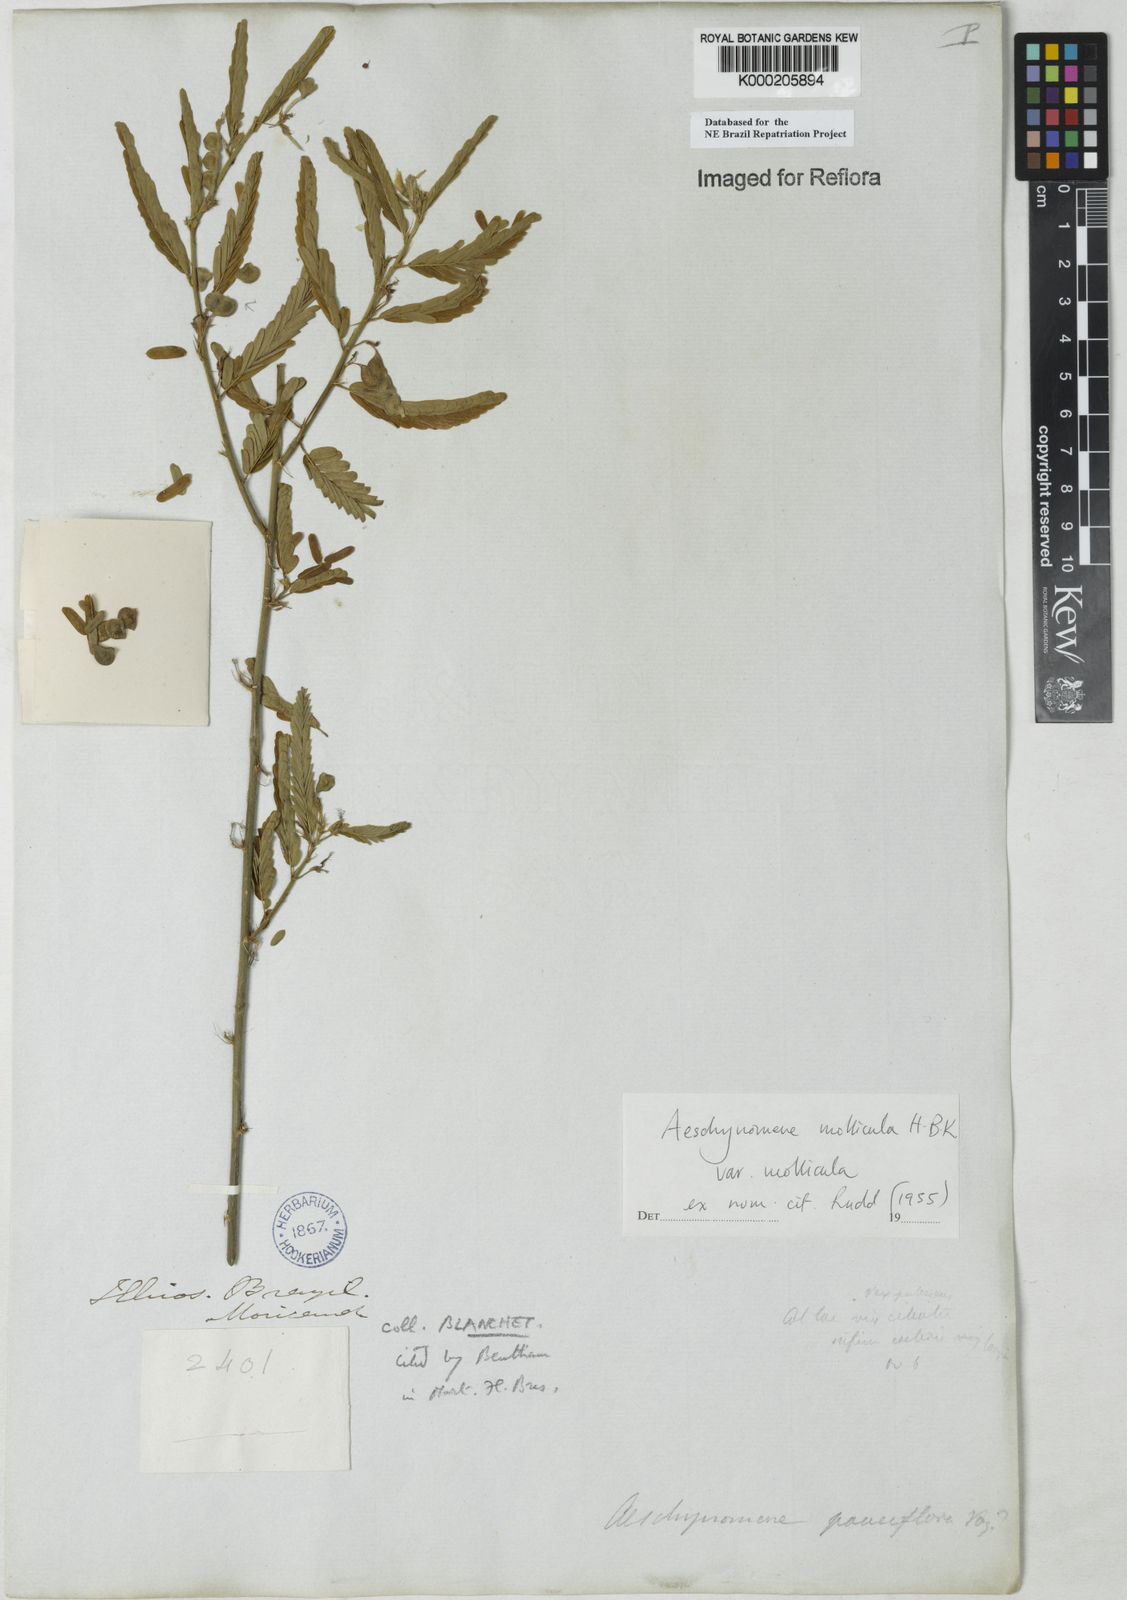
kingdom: Plantae
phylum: Tracheophyta
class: Magnoliopsida
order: Fabales
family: Fabaceae
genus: Ctenodon
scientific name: Ctenodon molliculus
